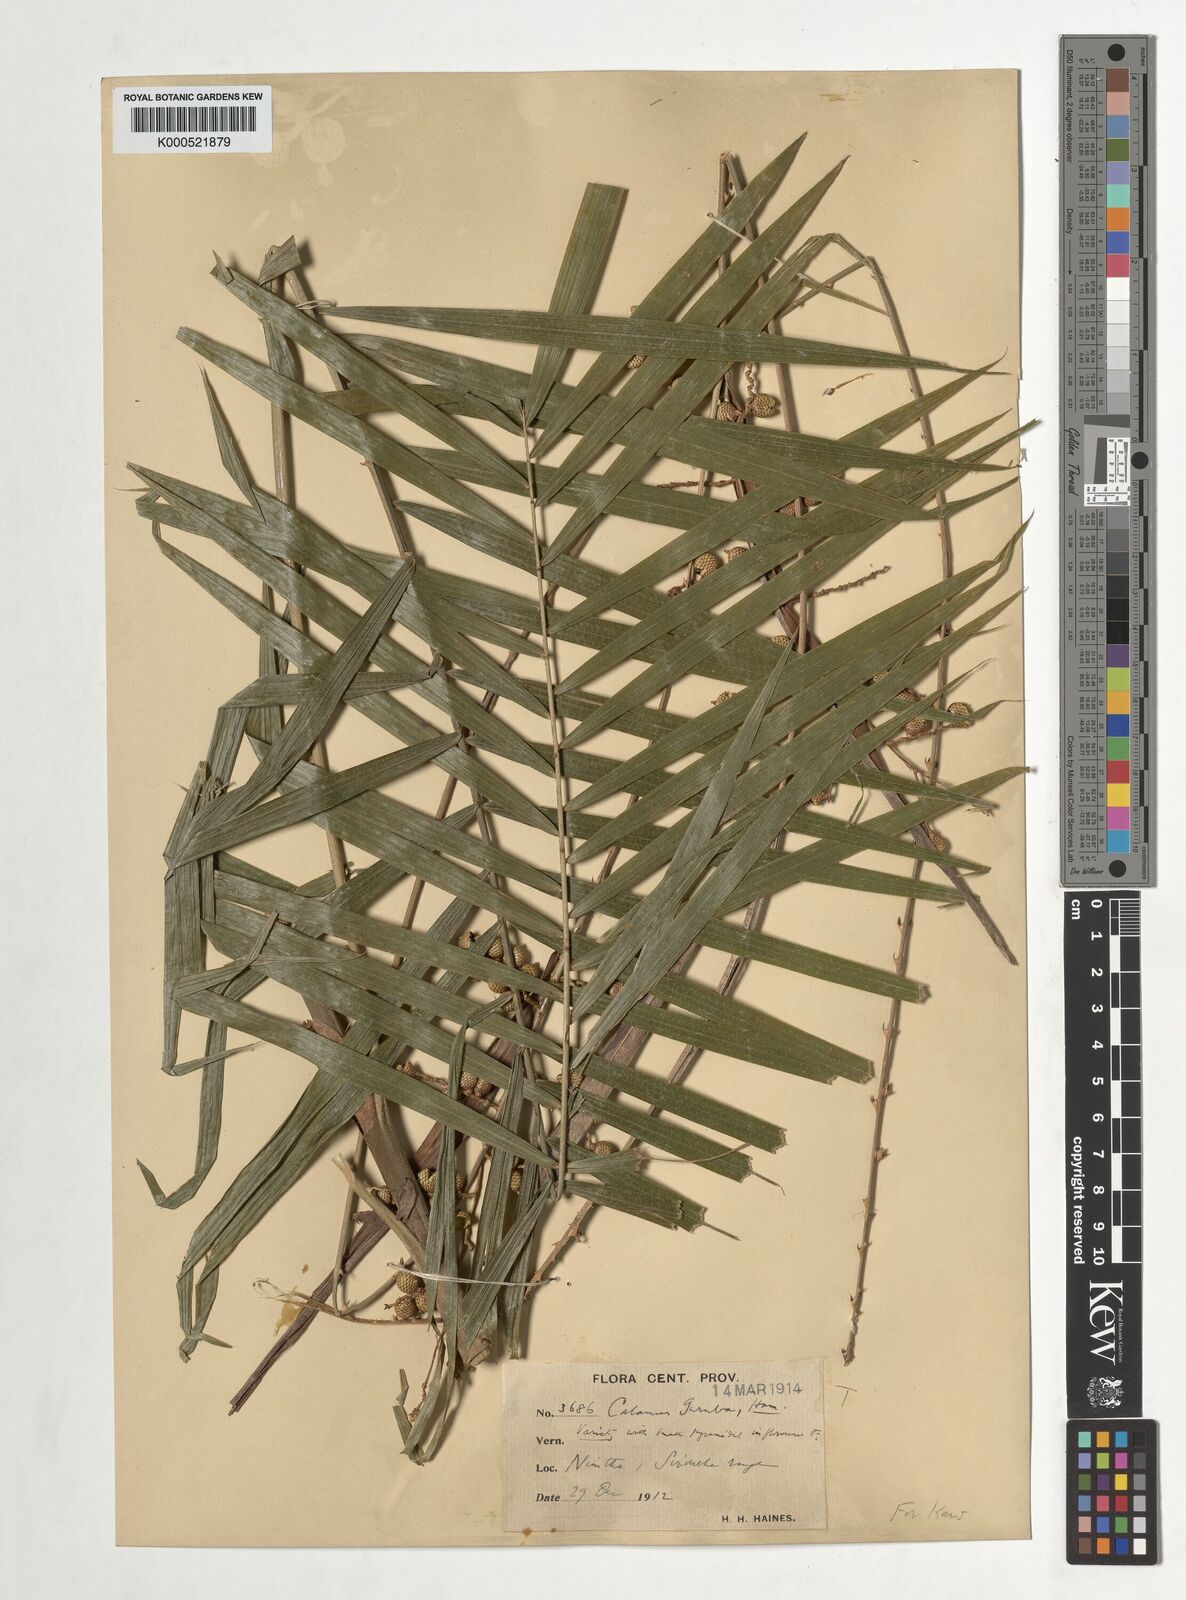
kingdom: Plantae
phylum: Tracheophyta
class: Liliopsida
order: Arecales
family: Arecaceae
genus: Calamus
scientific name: Calamus
